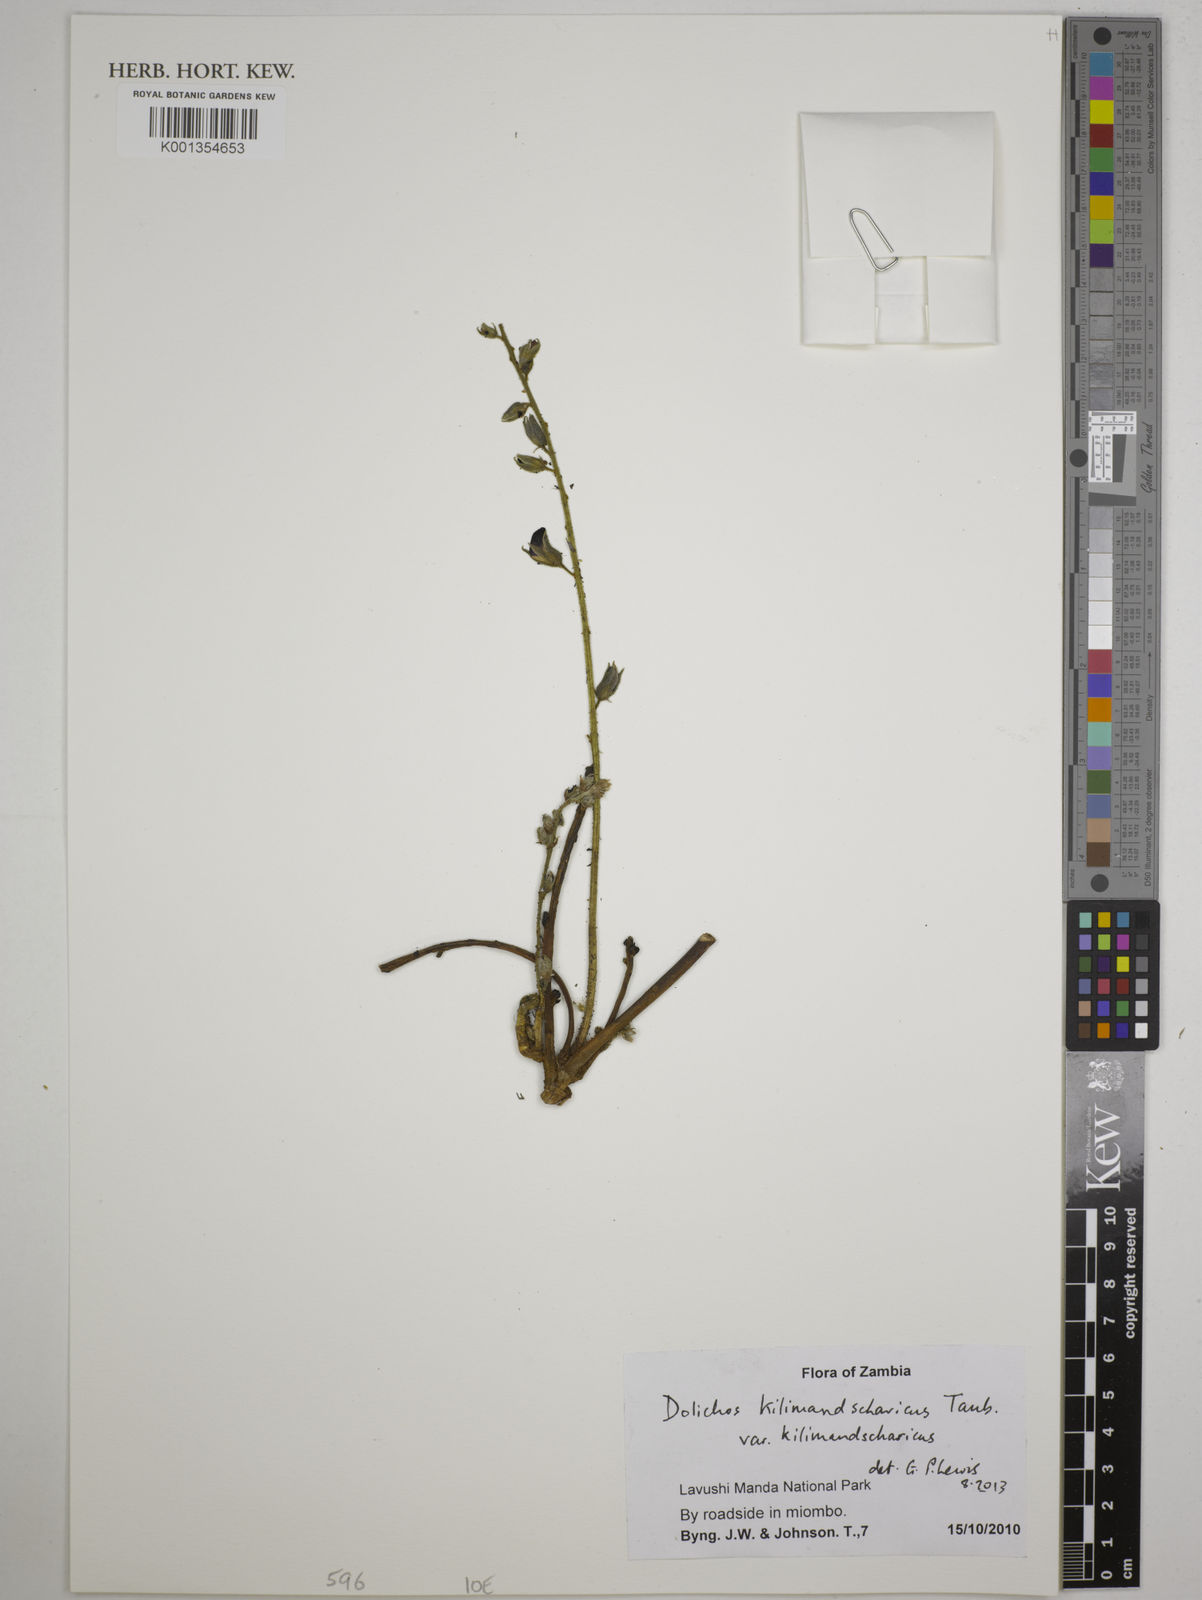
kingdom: Plantae
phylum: Tracheophyta
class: Magnoliopsida
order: Fabales
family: Fabaceae
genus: Dolichos
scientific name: Dolichos
